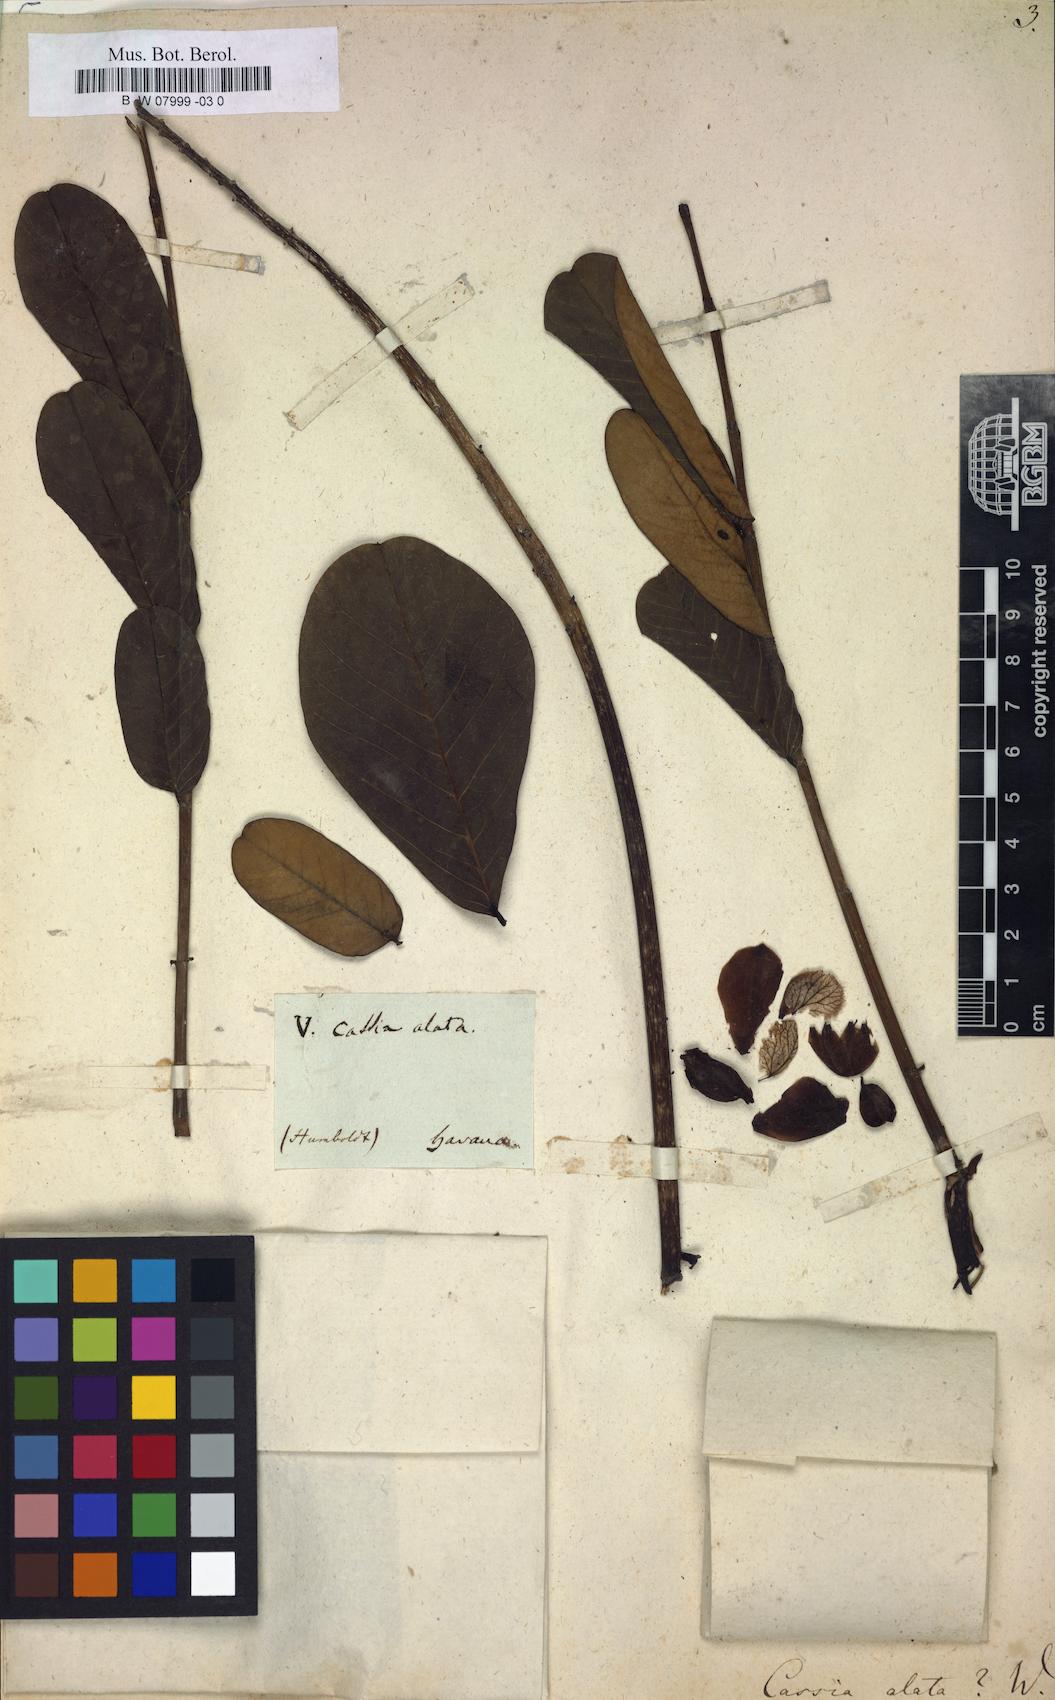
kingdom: Plantae
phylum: Tracheophyta
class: Magnoliopsida
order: Fabales
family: Fabaceae
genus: Senna
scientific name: Senna alata
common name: Emperor's candlesticks
